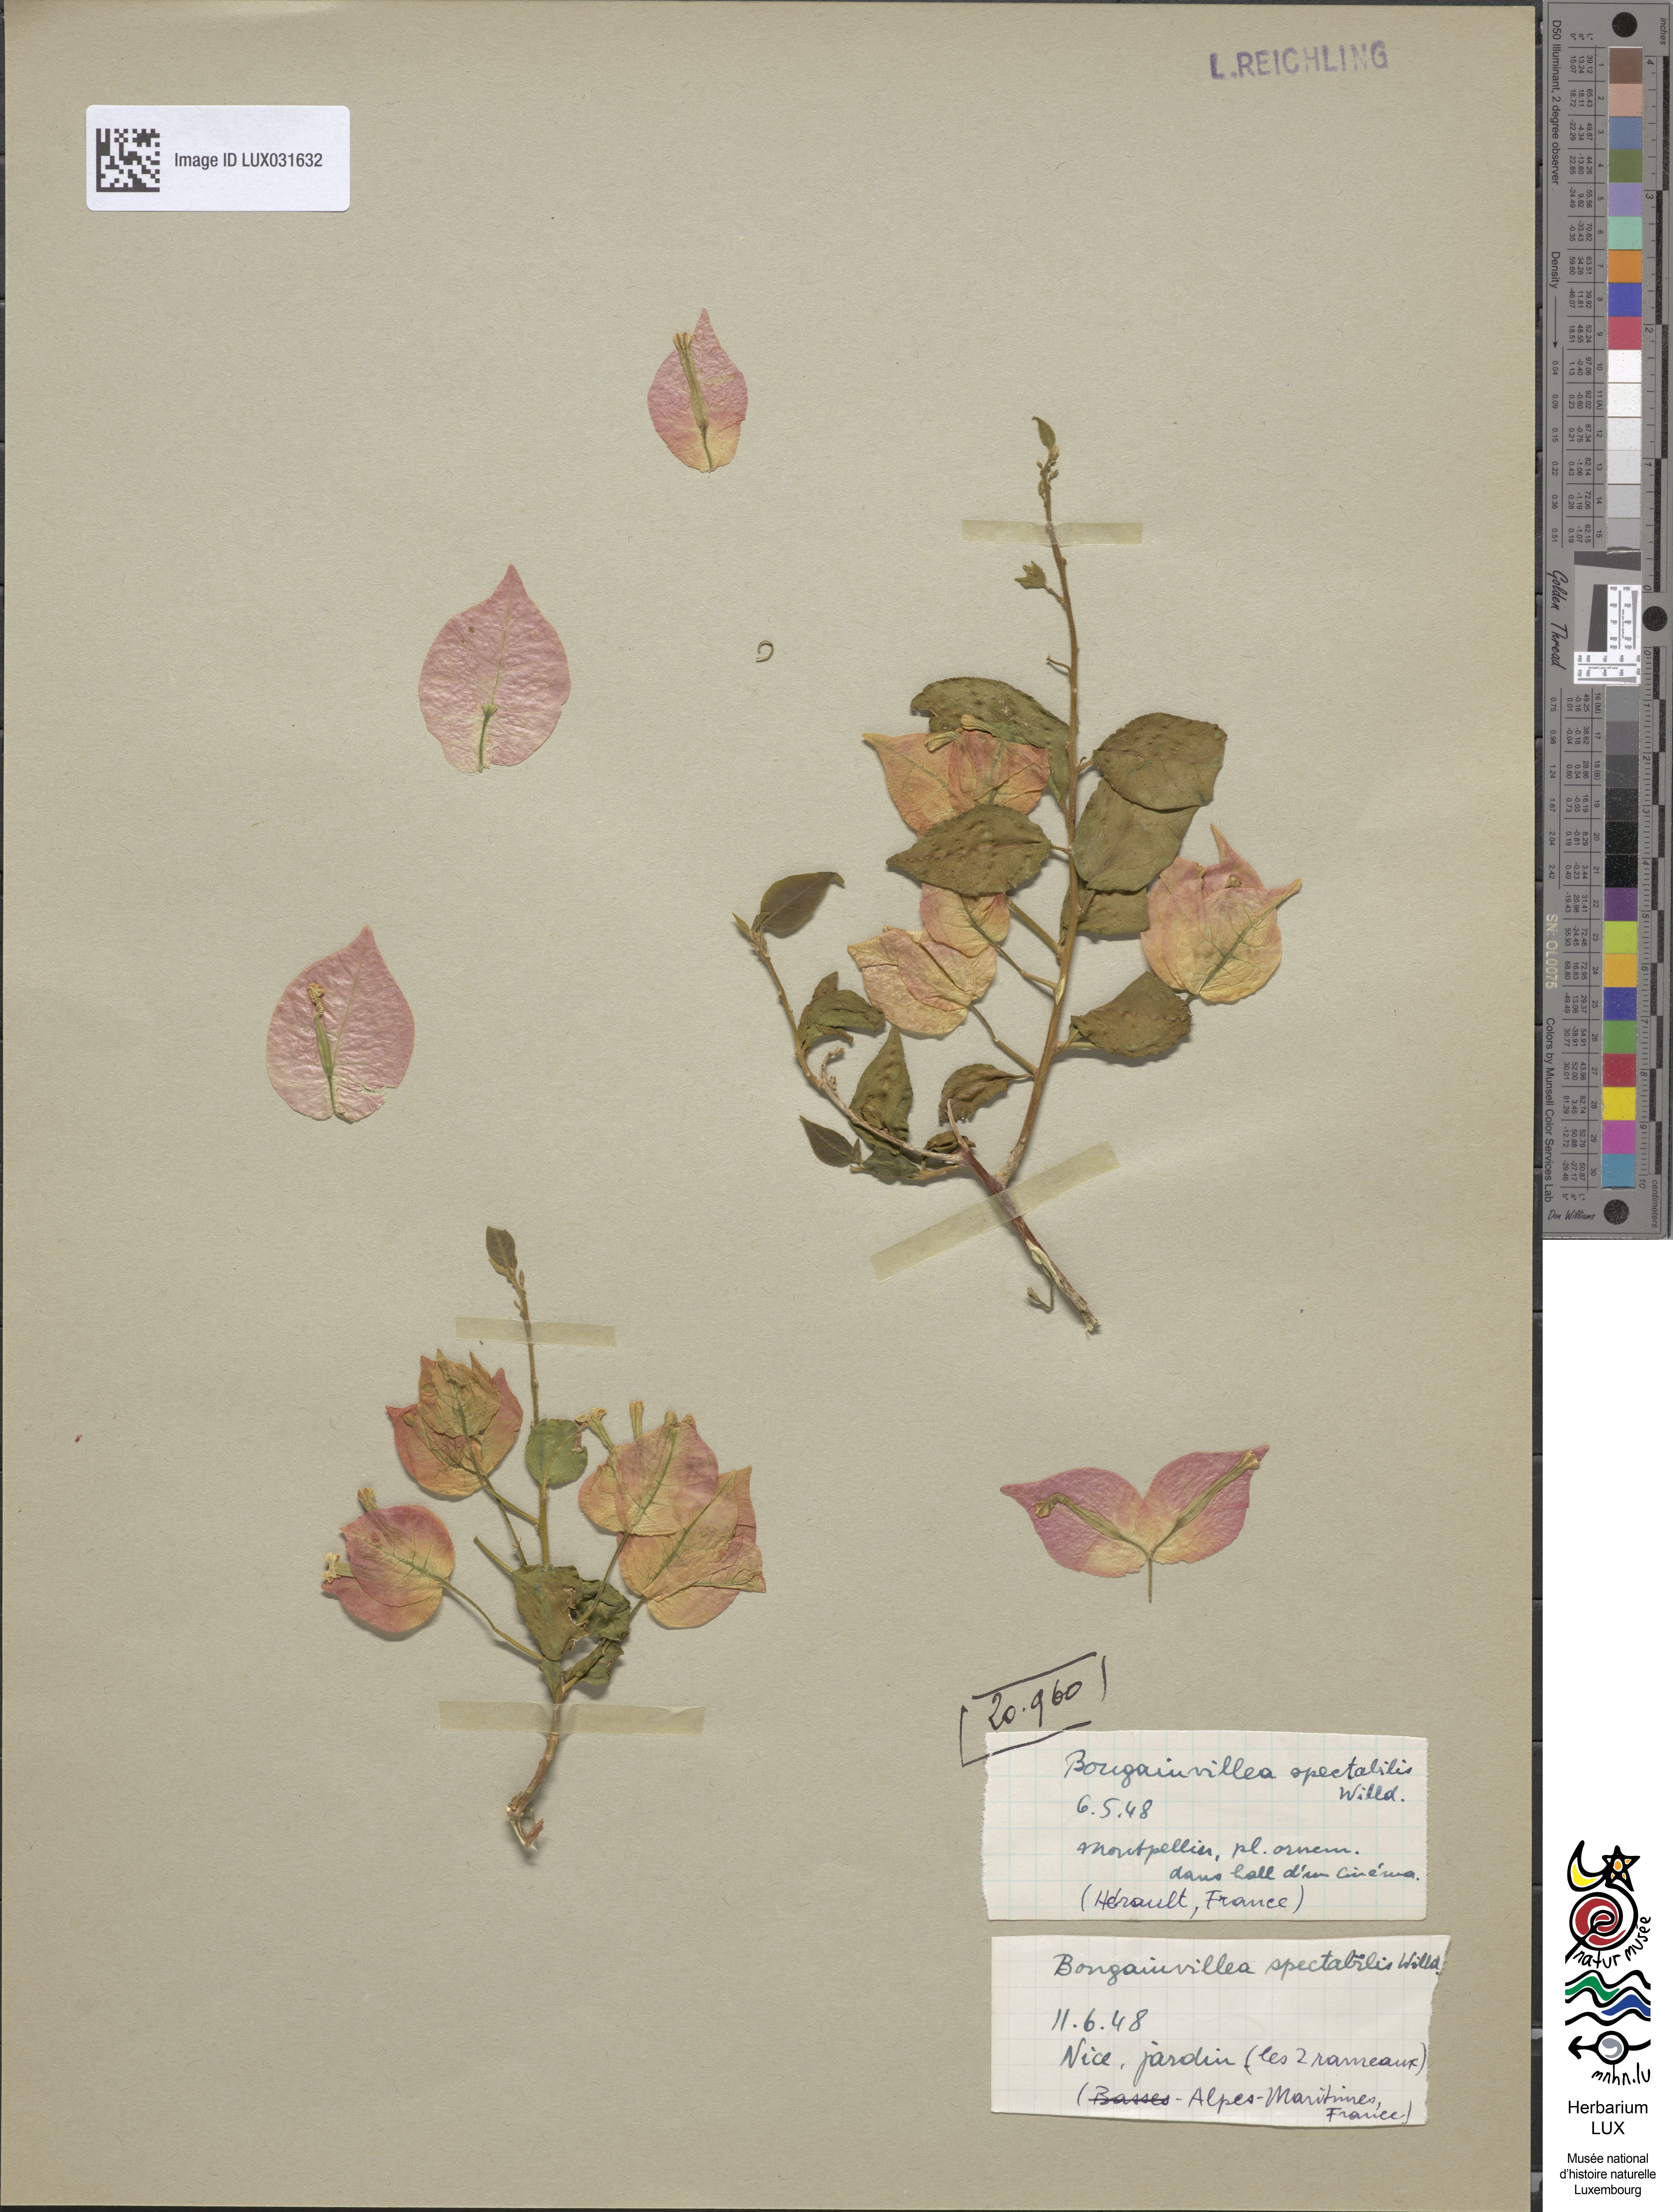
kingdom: Plantae
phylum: Tracheophyta
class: Magnoliopsida
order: Caryophyllales
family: Nyctaginaceae
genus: Bougainvillea
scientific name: Bougainvillea spectabilis
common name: Great bougainvillea
